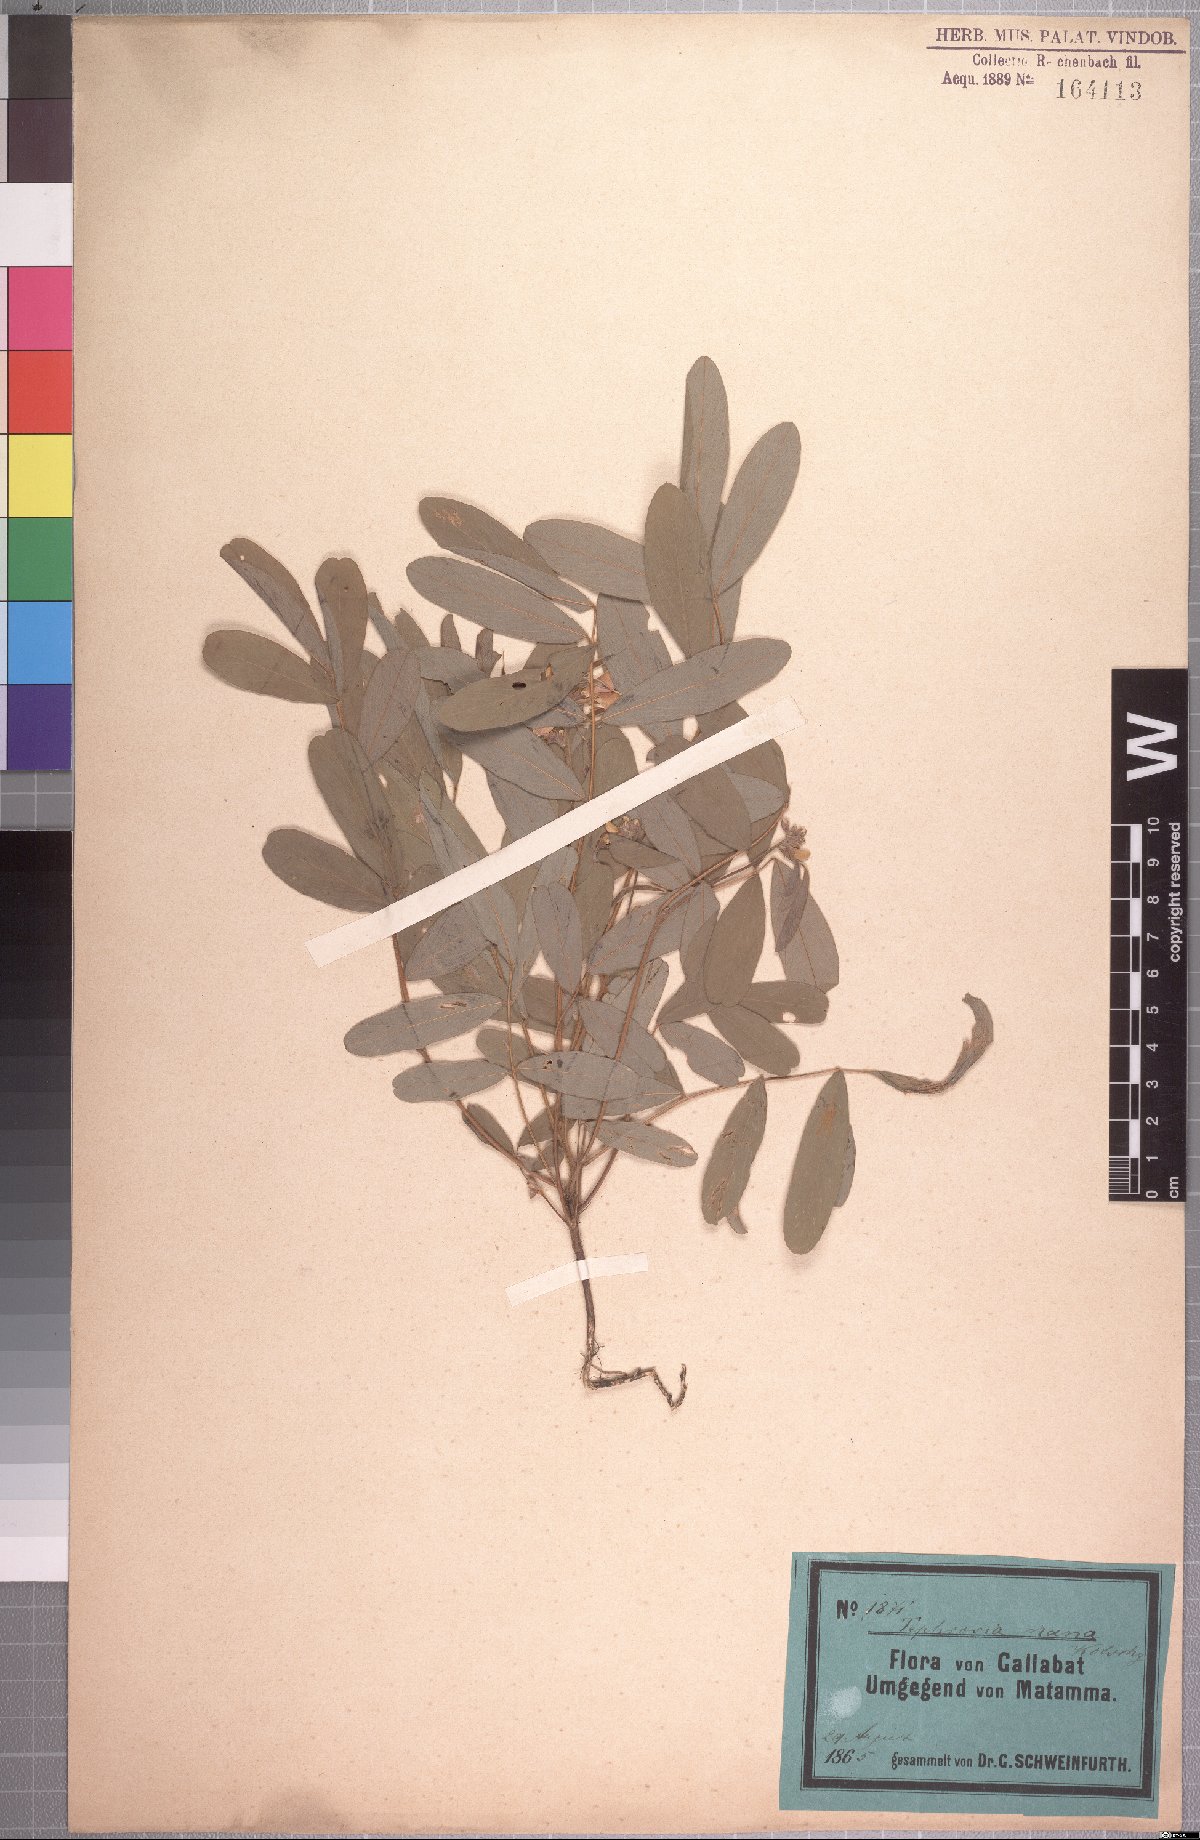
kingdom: Plantae
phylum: Tracheophyta
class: Magnoliopsida
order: Fabales
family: Fabaceae
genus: Tephrosia
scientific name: Tephrosia nana
